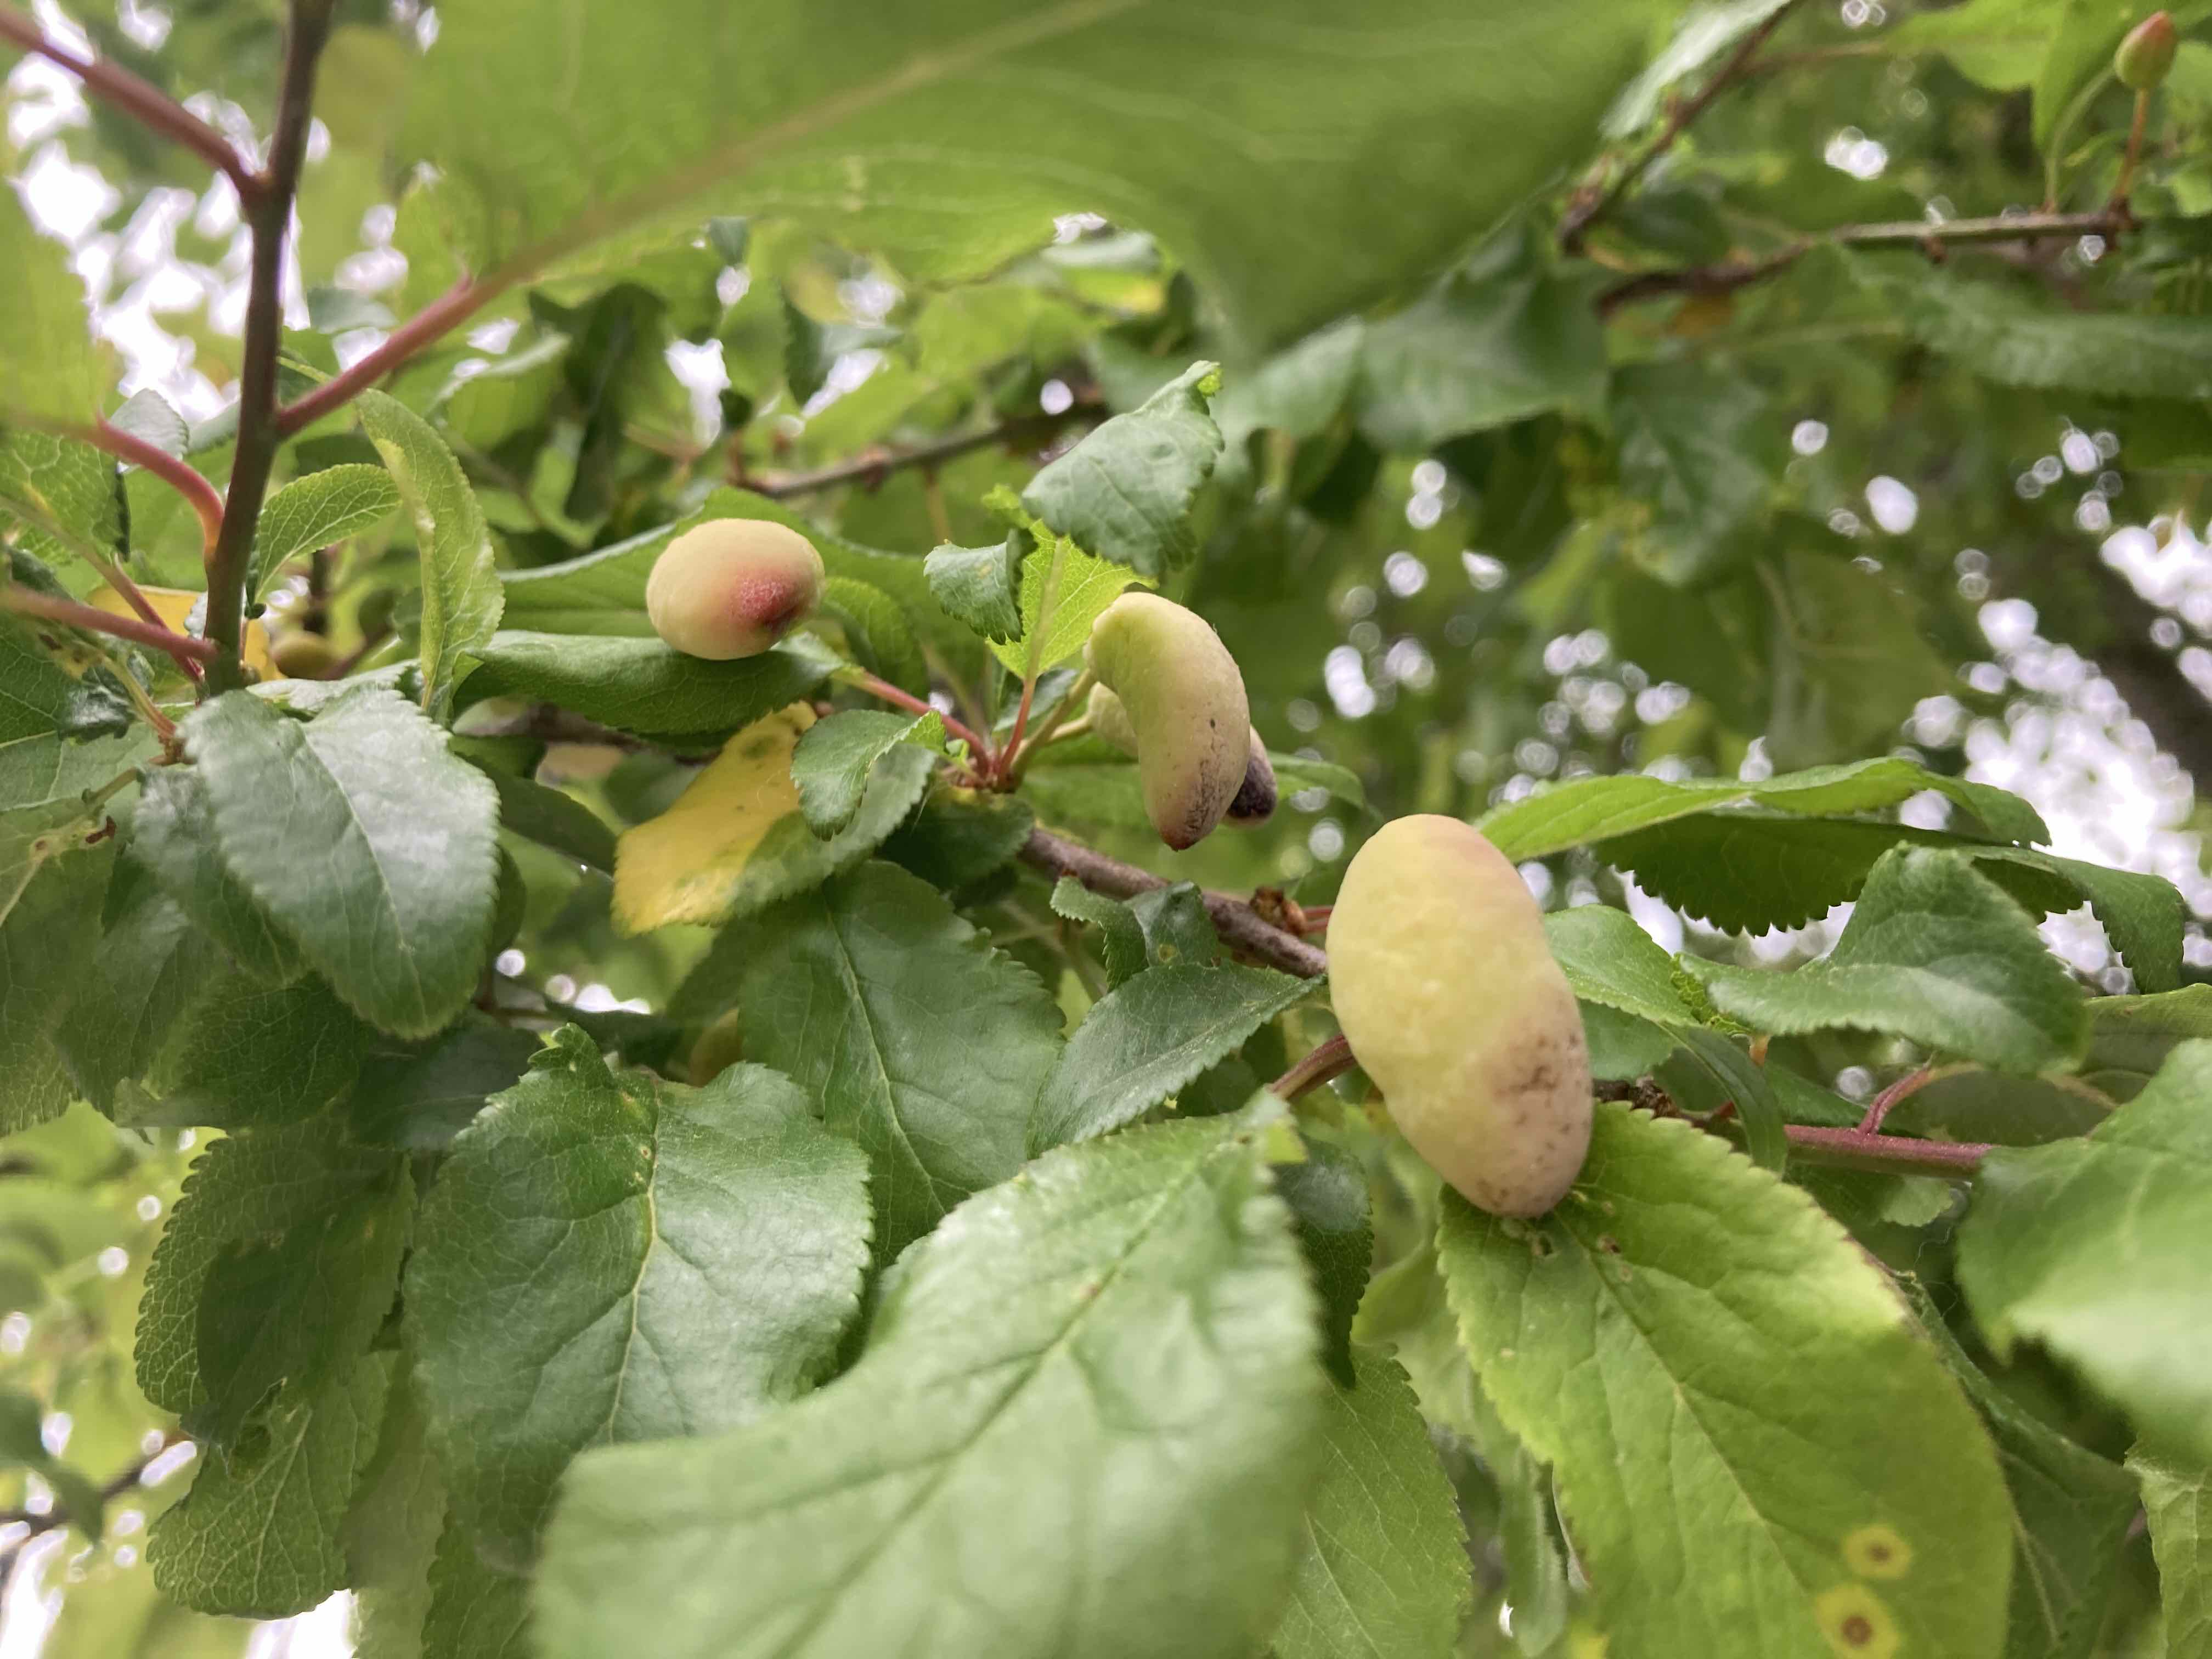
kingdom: Fungi
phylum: Ascomycota
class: Taphrinomycetes
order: Taphrinales
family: Taphrinaceae
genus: Taphrina
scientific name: Taphrina pruni
